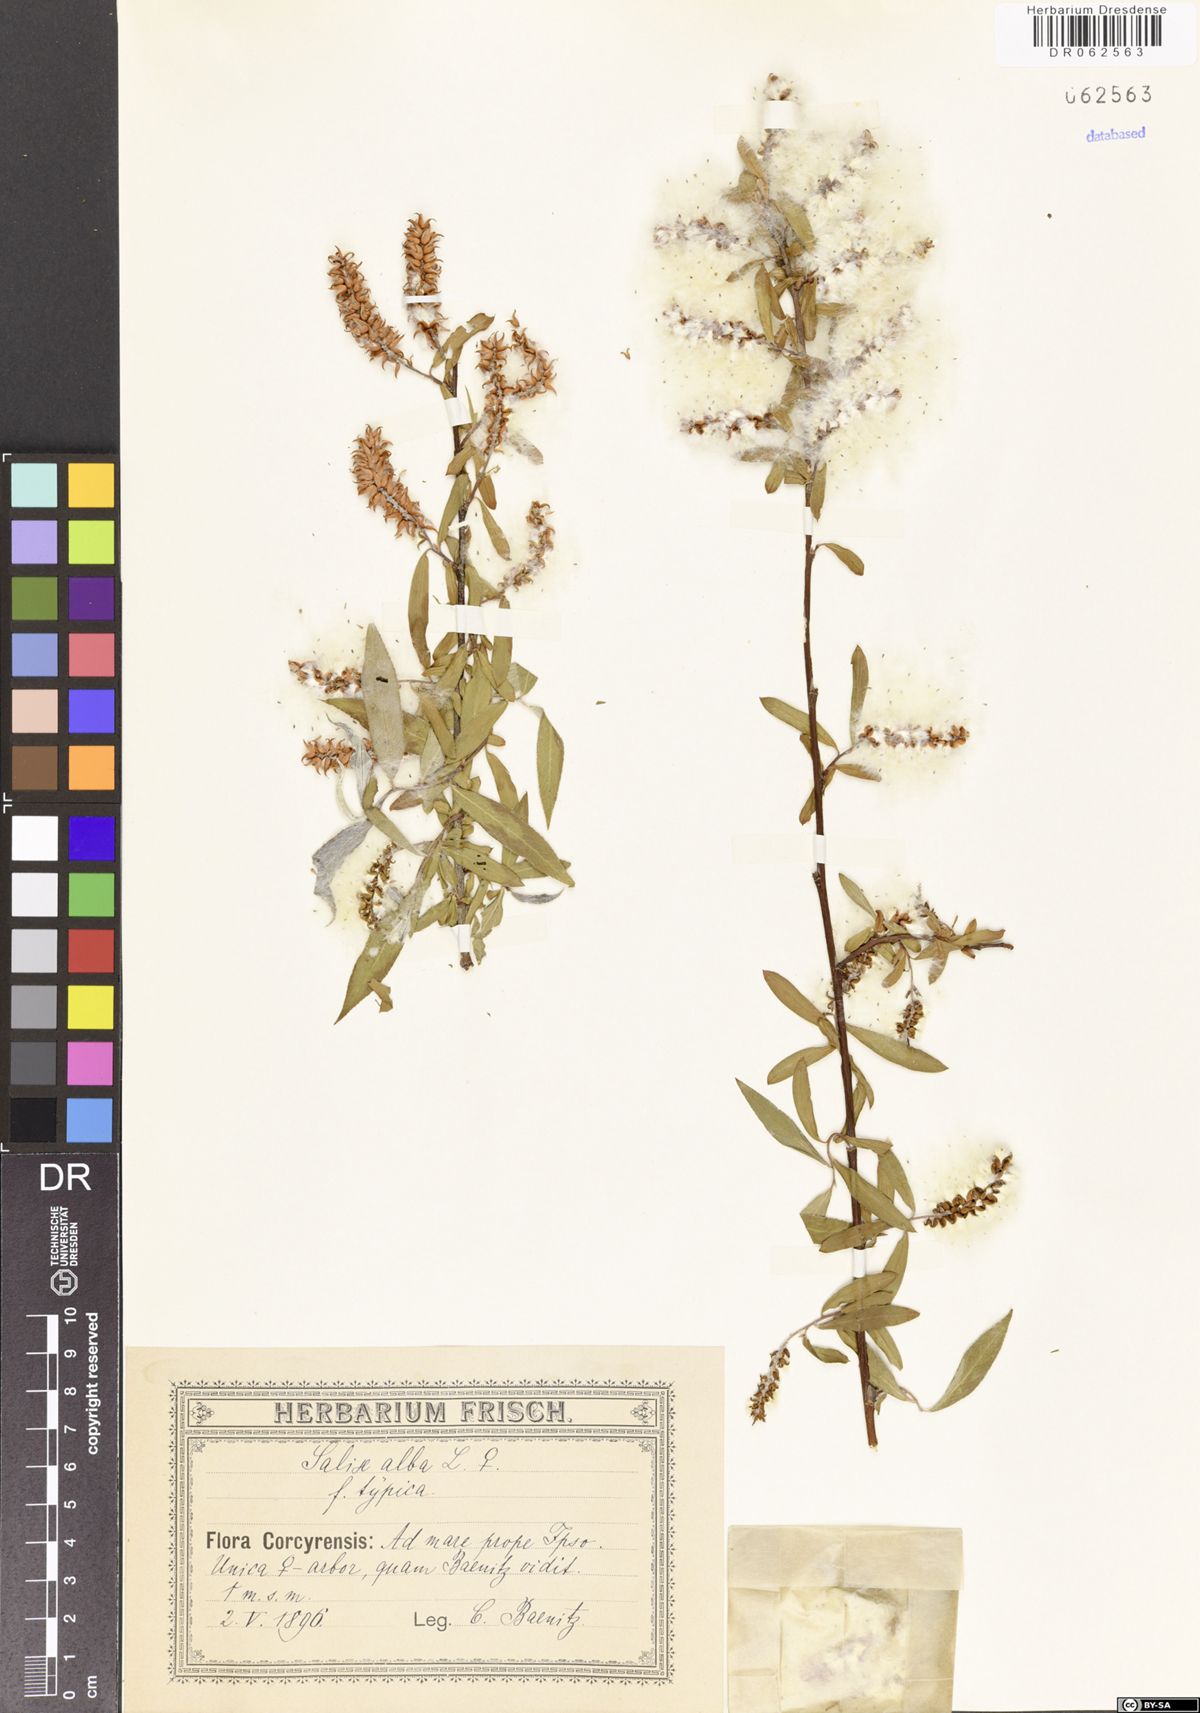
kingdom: Plantae
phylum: Tracheophyta
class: Magnoliopsida
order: Malpighiales
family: Salicaceae
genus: Salix
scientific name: Salix alba
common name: White willow
